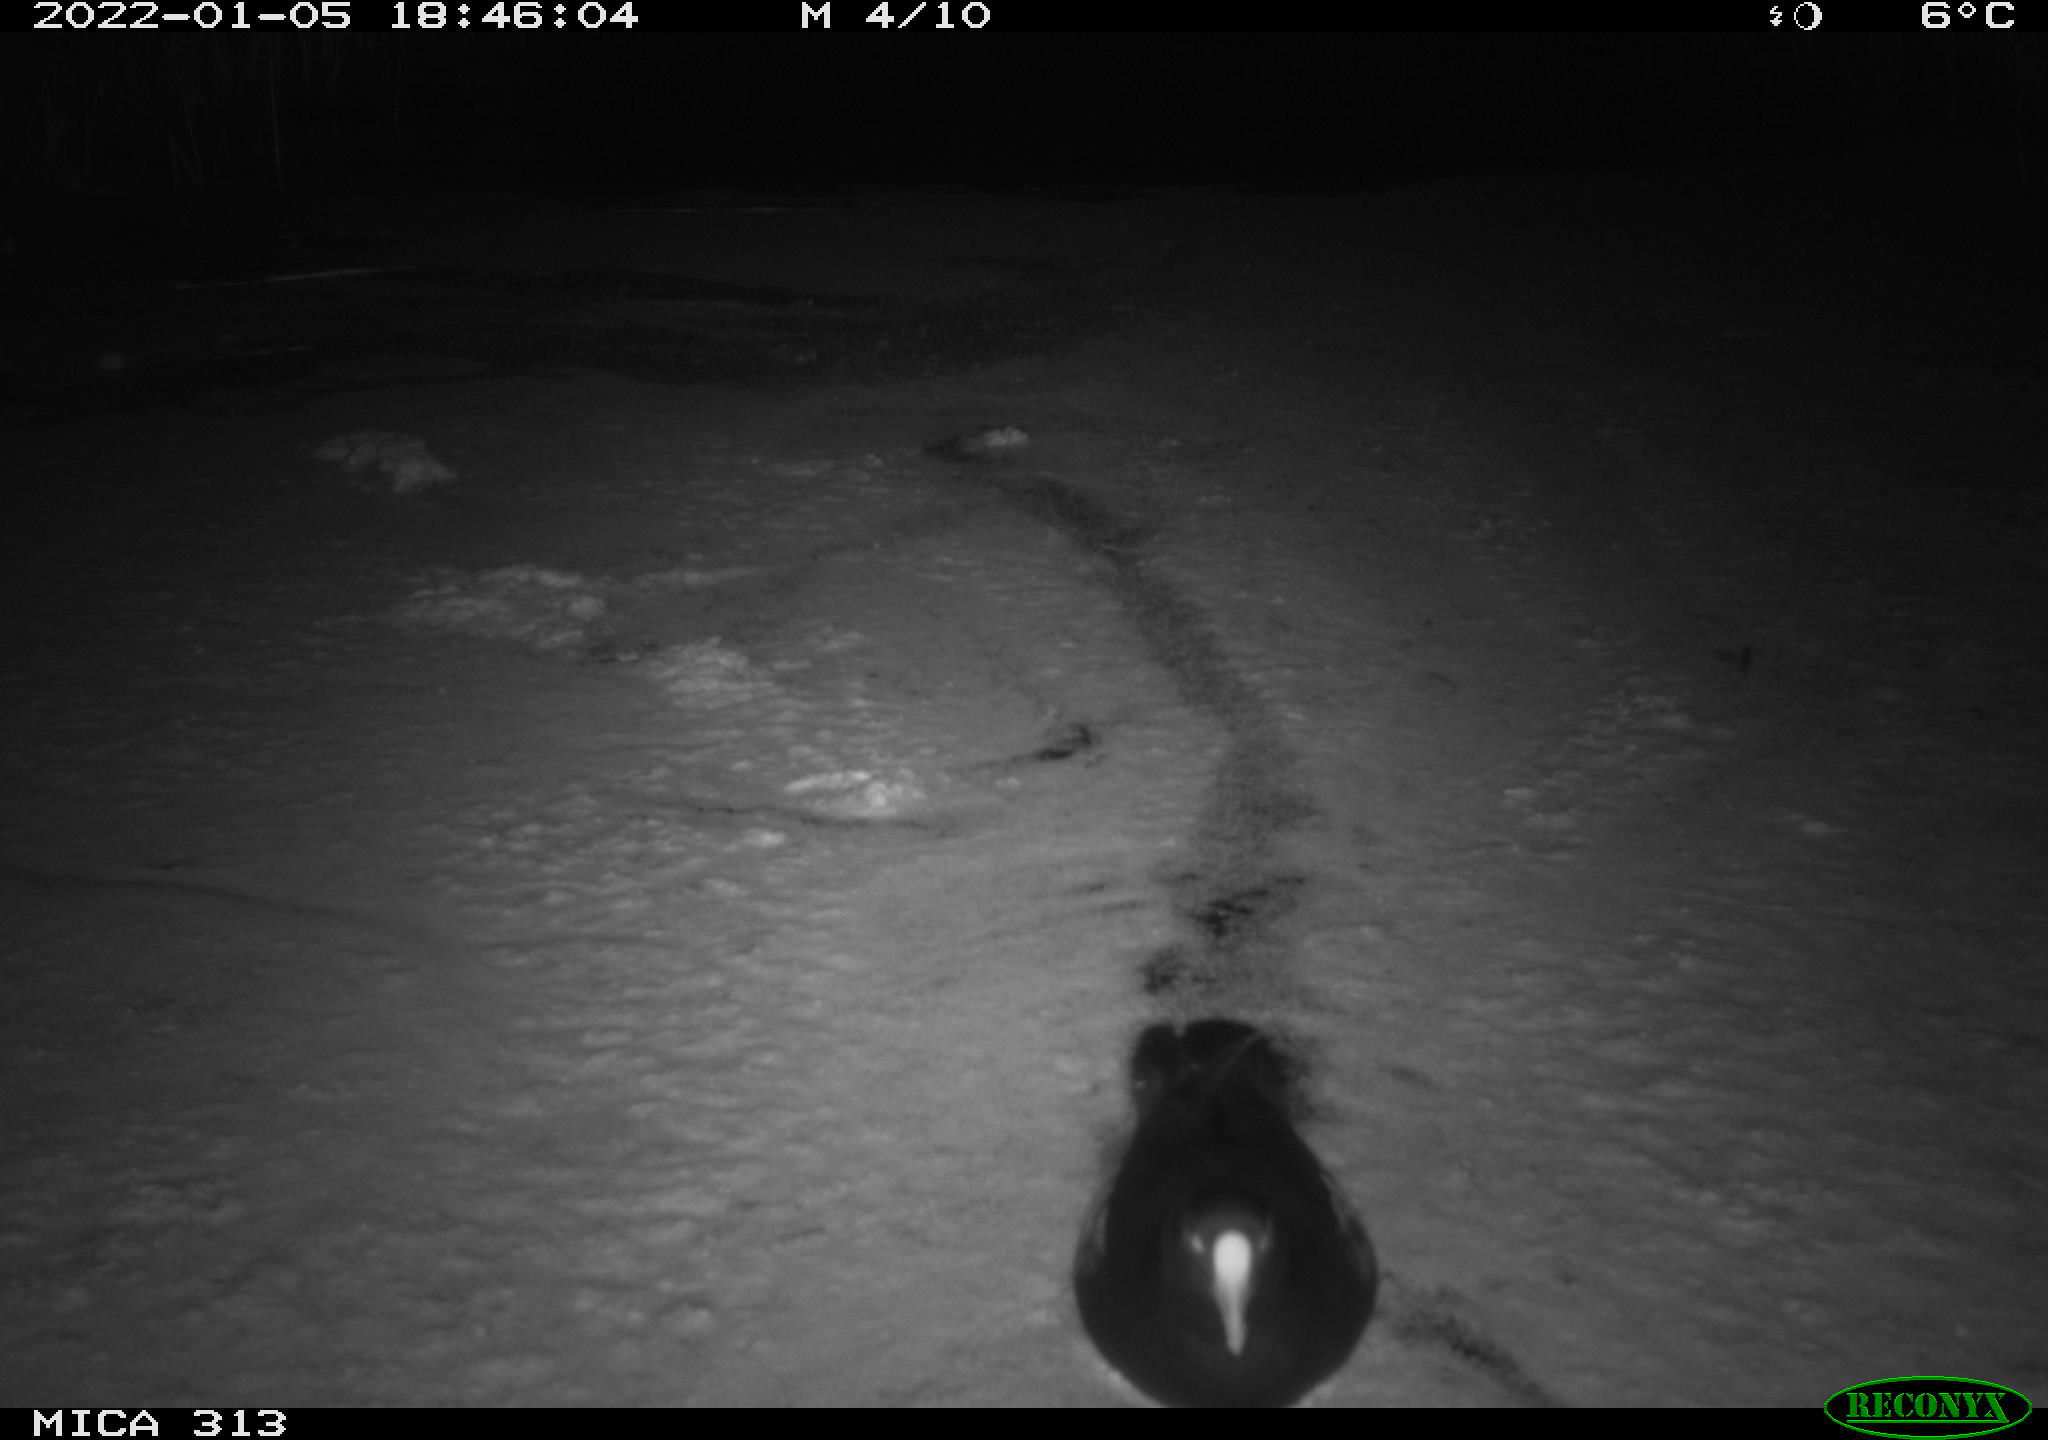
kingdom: Animalia
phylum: Chordata
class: Aves
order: Gruiformes
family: Rallidae
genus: Fulica
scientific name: Fulica atra
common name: Eurasian coot
